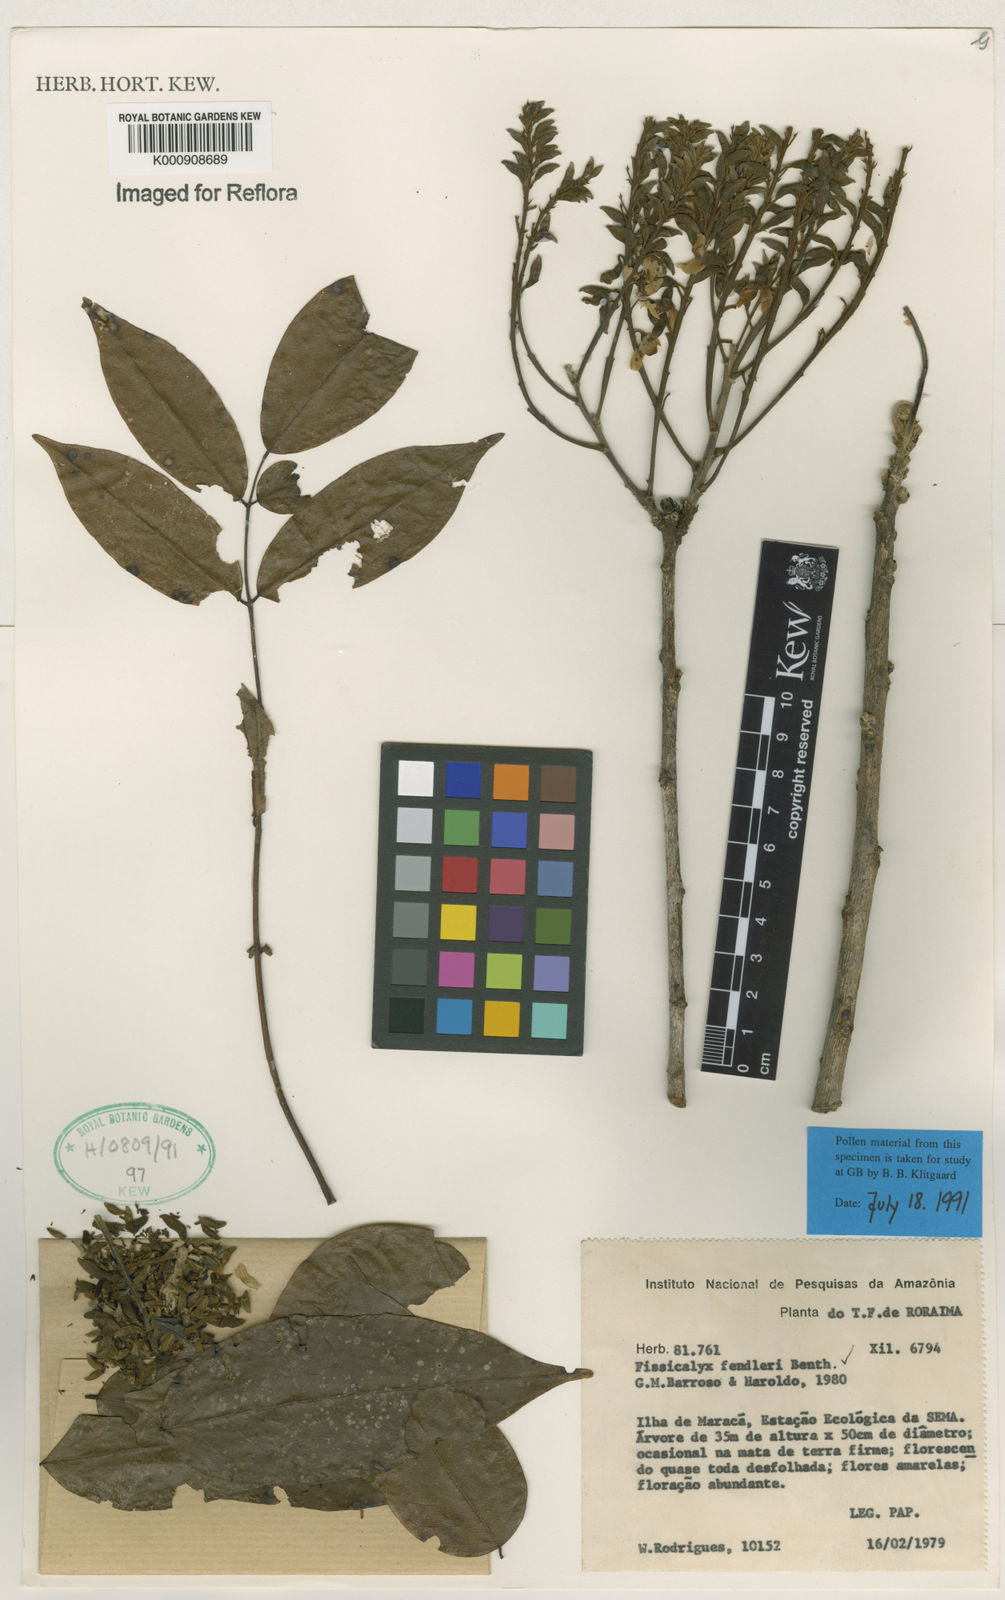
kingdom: Plantae
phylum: Tracheophyta
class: Magnoliopsida
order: Fabales
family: Fabaceae
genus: Fissicalyx
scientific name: Fissicalyx fendleri
